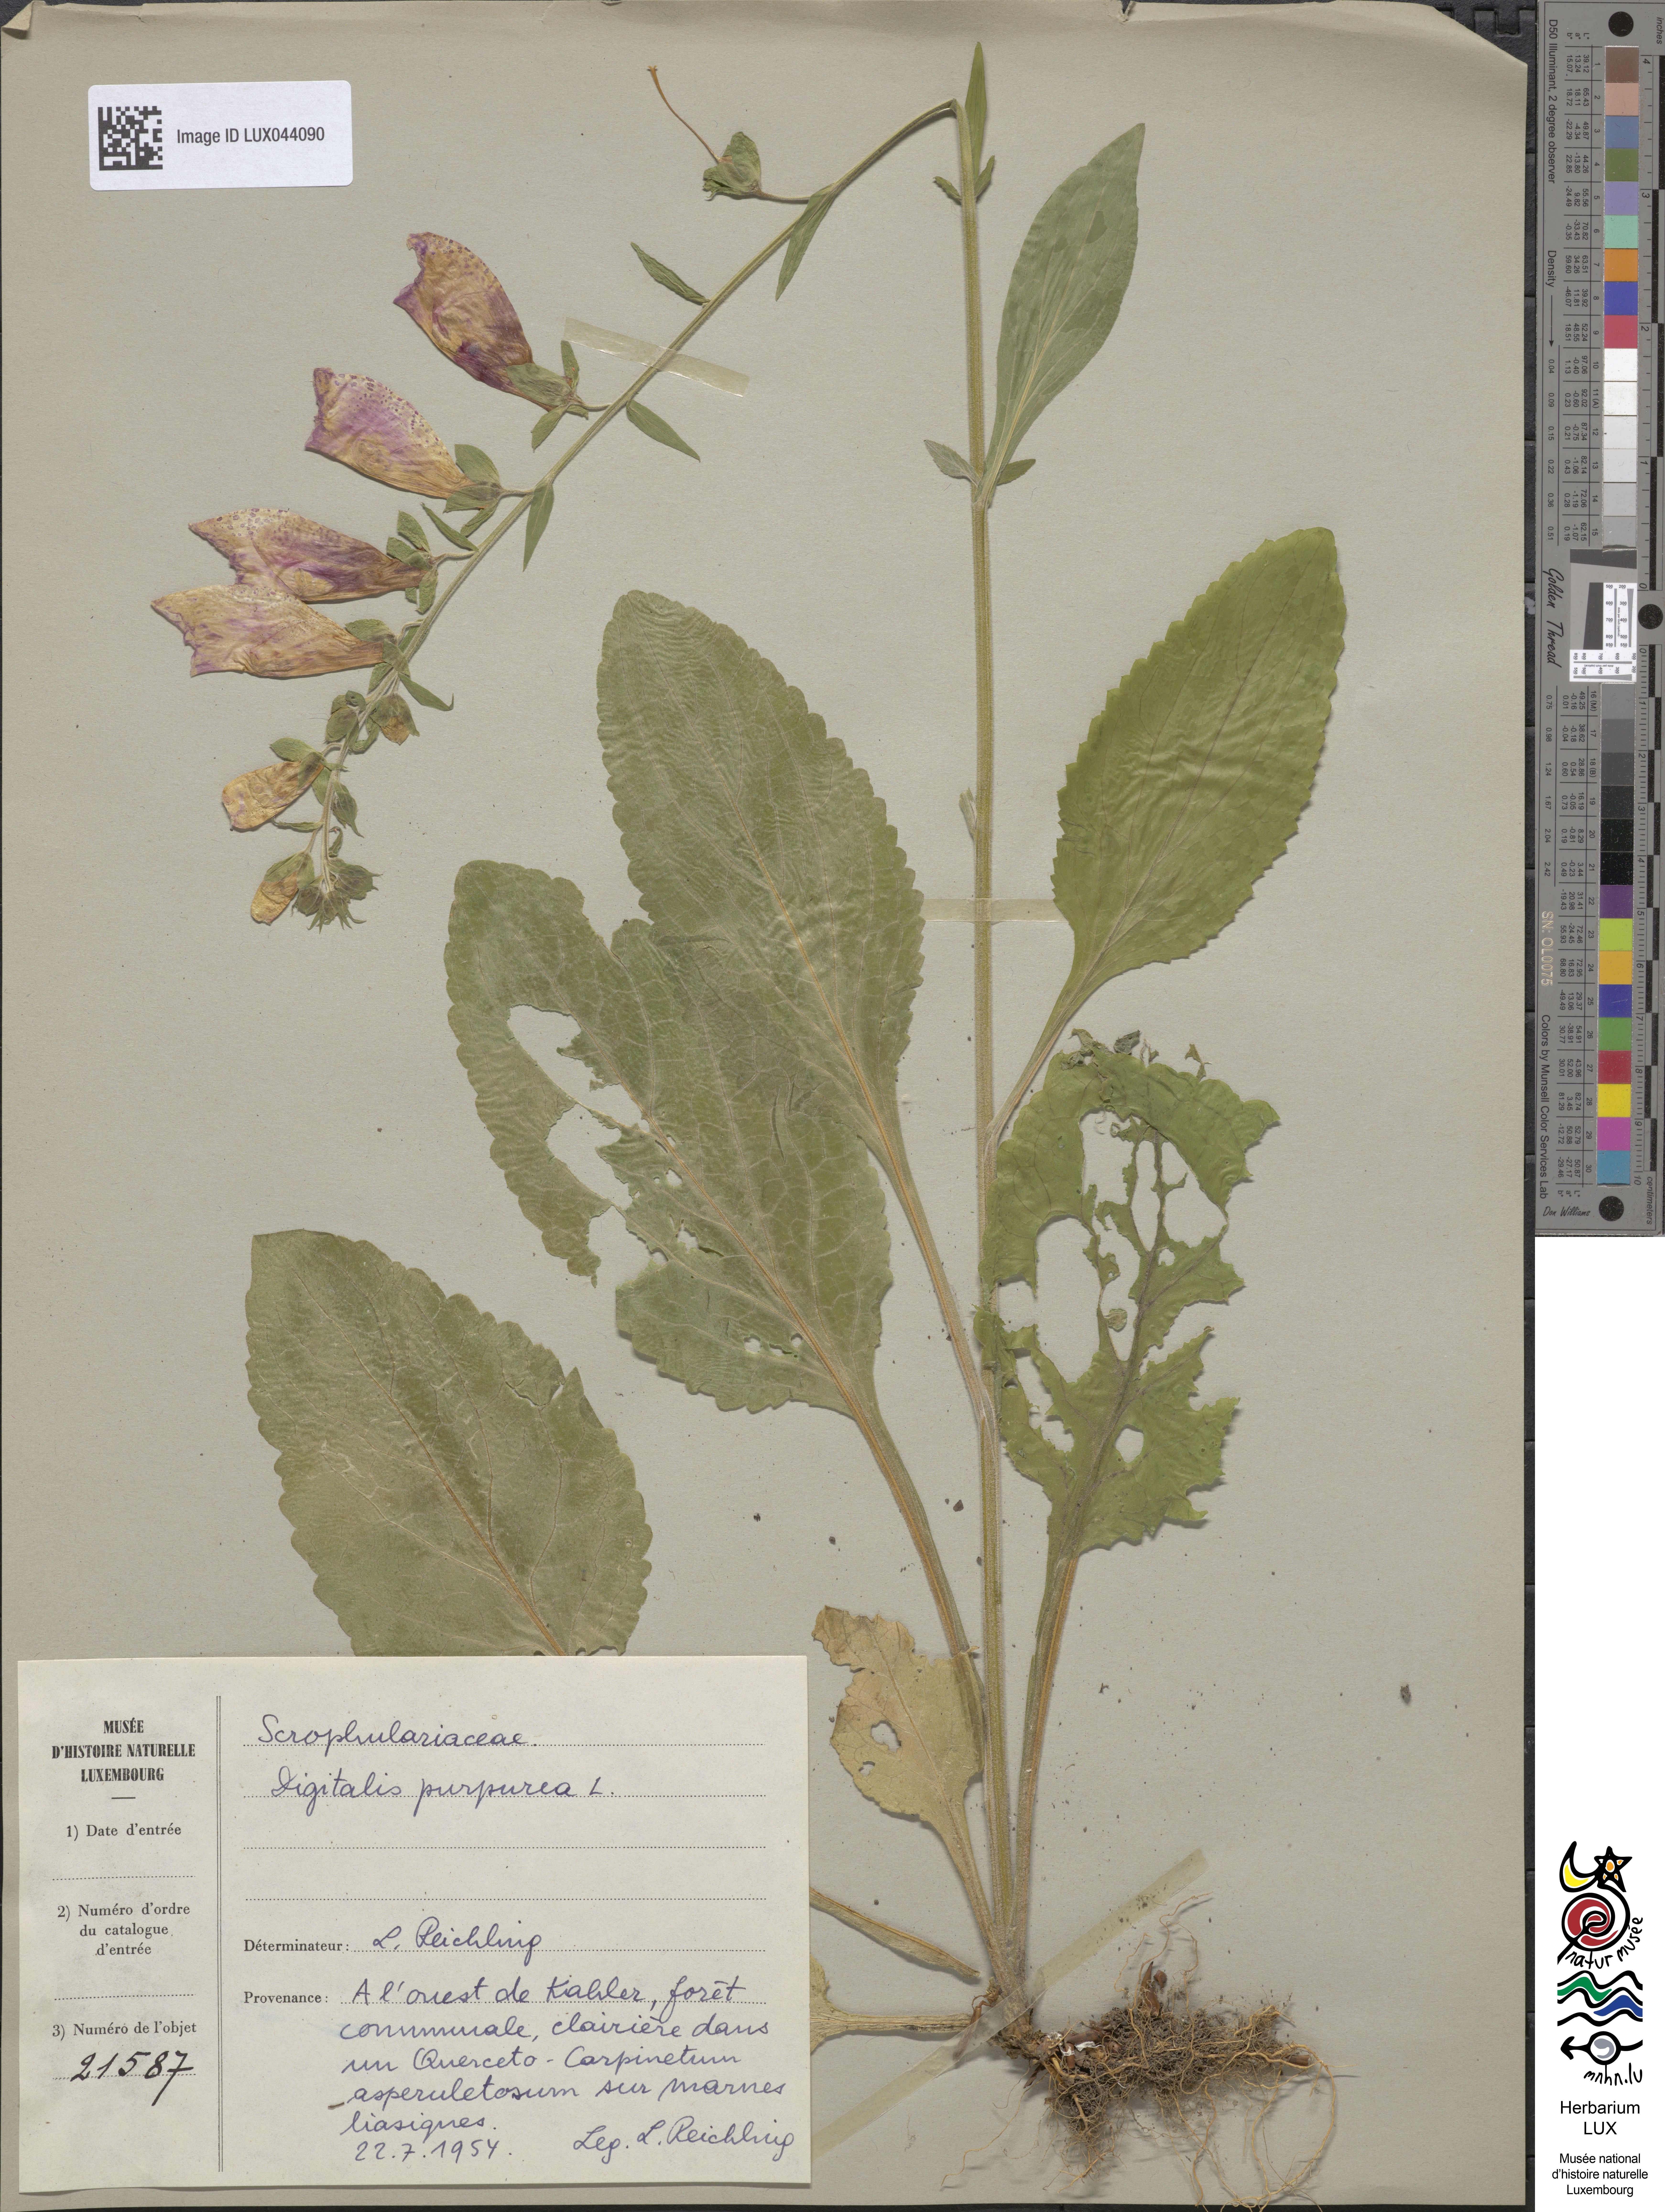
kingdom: Plantae
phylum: Tracheophyta
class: Magnoliopsida
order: Lamiales
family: Plantaginaceae
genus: Digitalis
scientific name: Digitalis purpurea
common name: Foxglove
